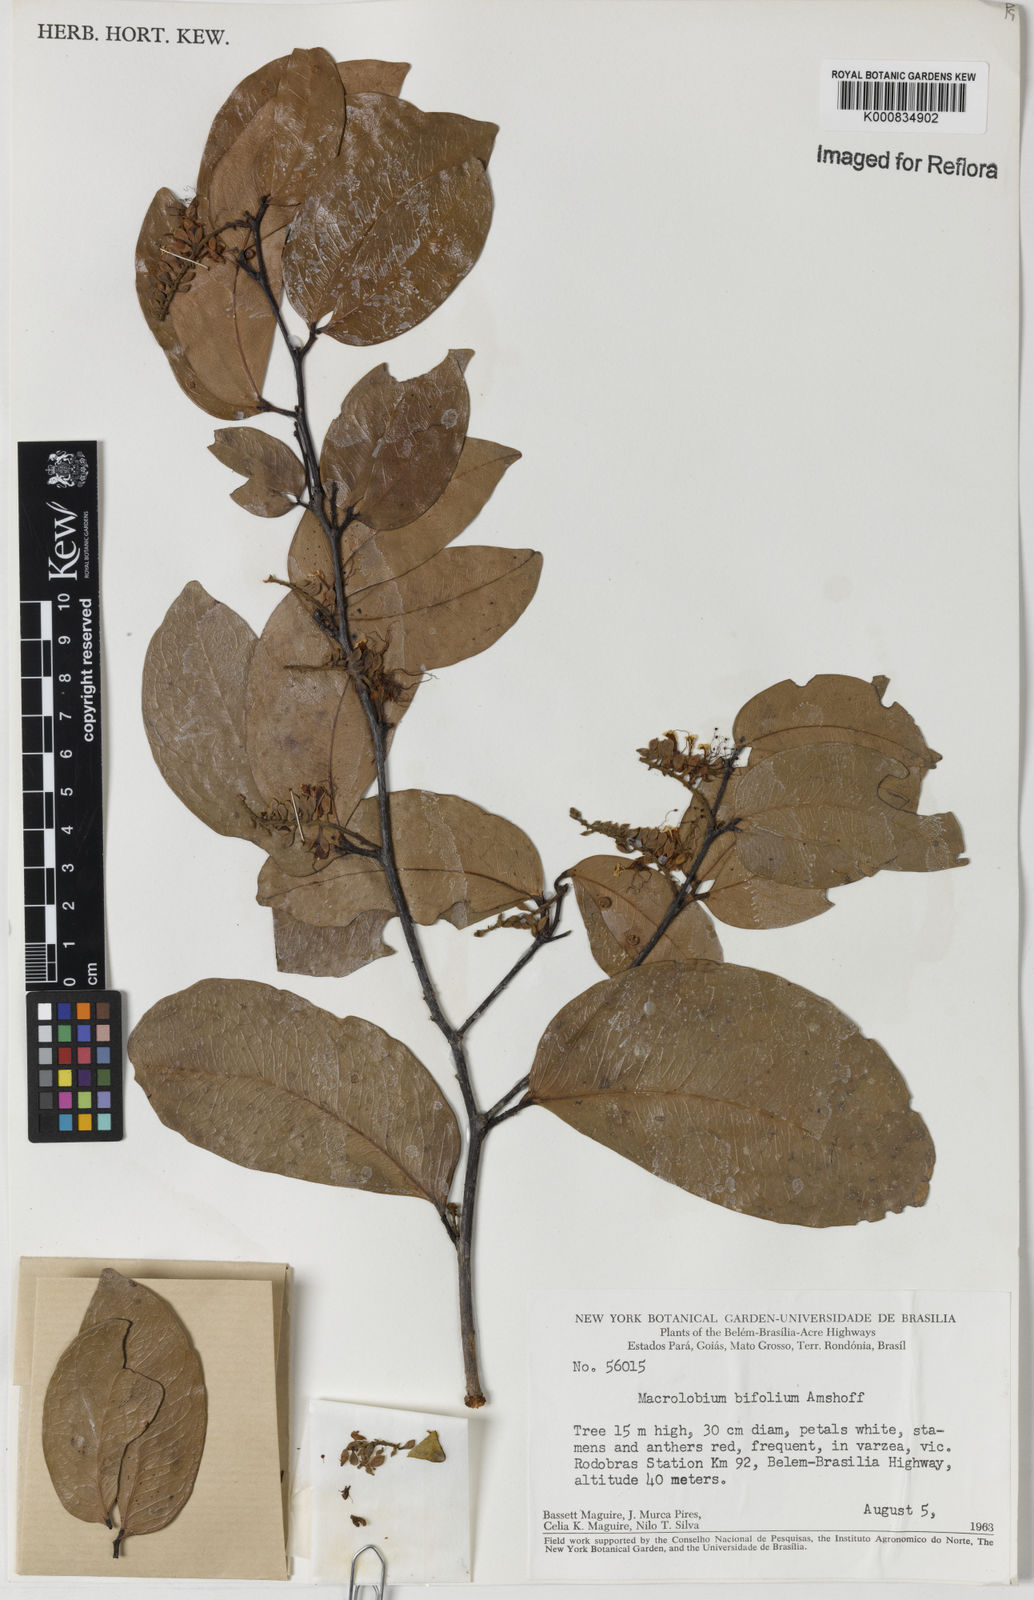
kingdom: Plantae
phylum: Tracheophyta
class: Magnoliopsida
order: Fabales
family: Fabaceae
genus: Macrolobium
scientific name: Macrolobium bifolium
